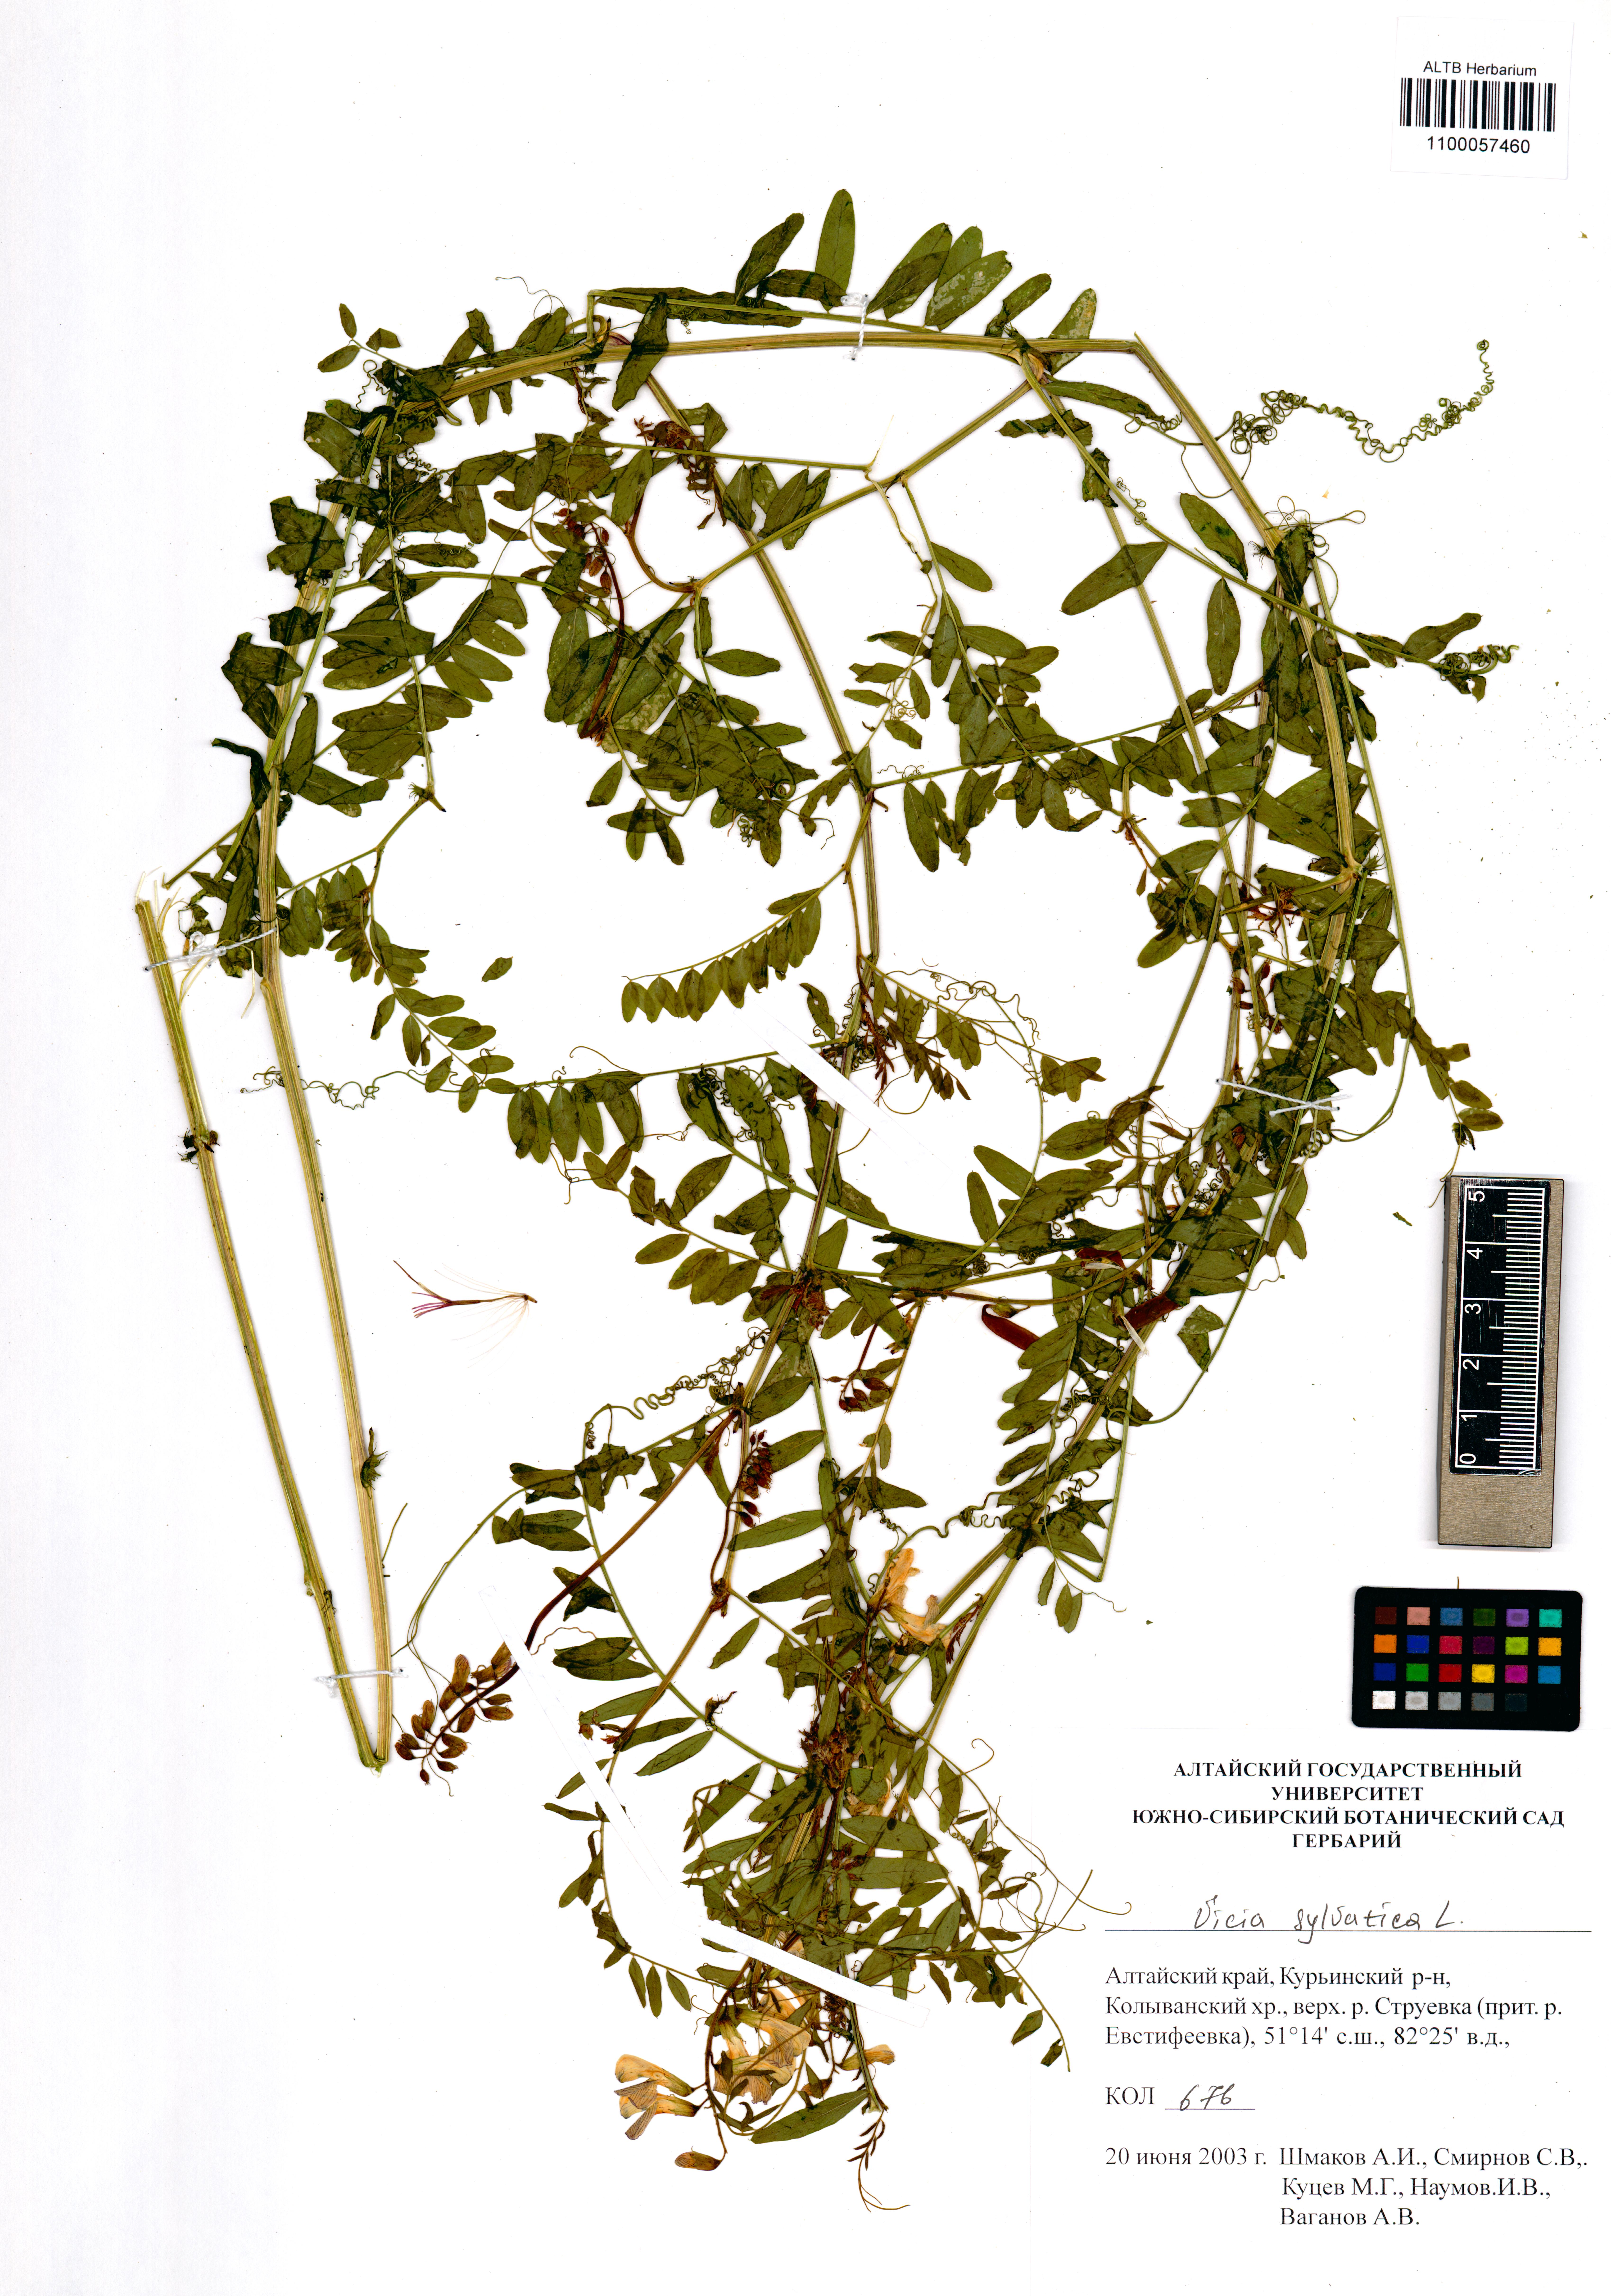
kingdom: Plantae
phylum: Tracheophyta
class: Magnoliopsida
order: Fabales
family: Fabaceae
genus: Vicia
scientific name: Vicia sylvatica
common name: Wood vetch
